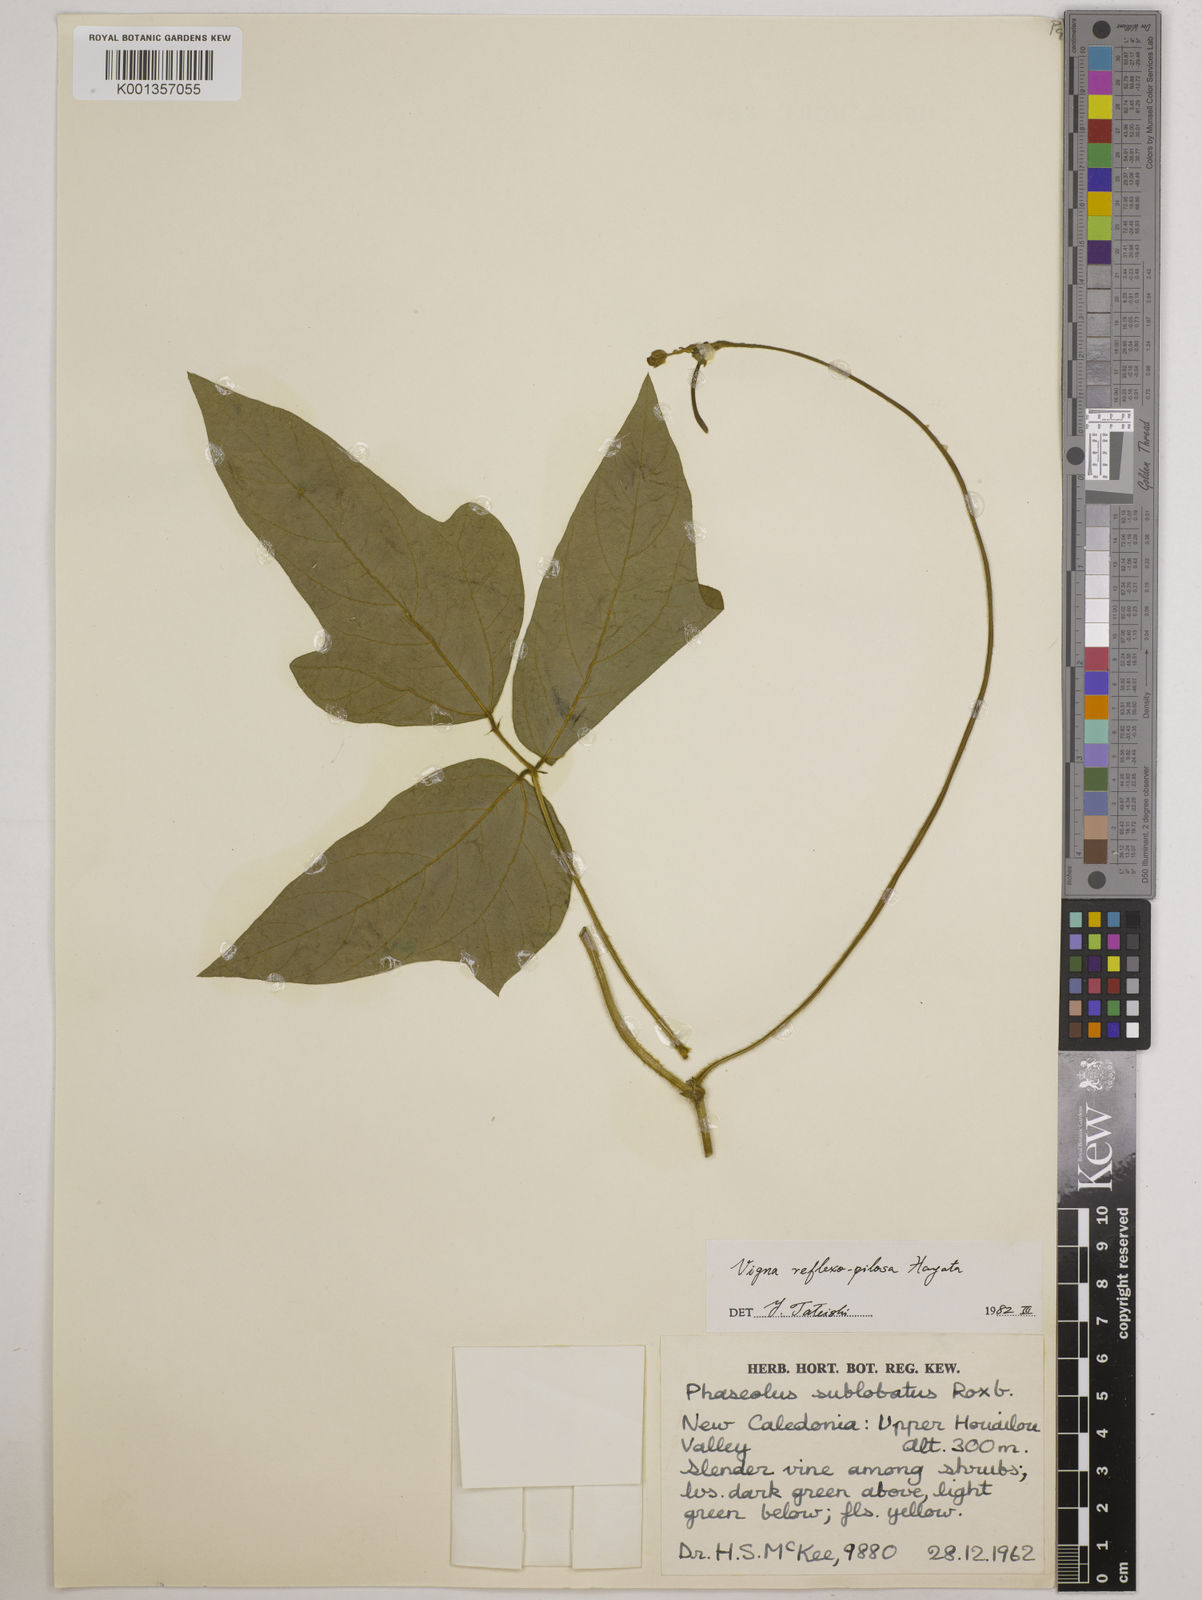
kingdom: Plantae
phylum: Tracheophyta
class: Magnoliopsida
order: Fabales
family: Fabaceae
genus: Vigna
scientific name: Vigna reflexopilosa
